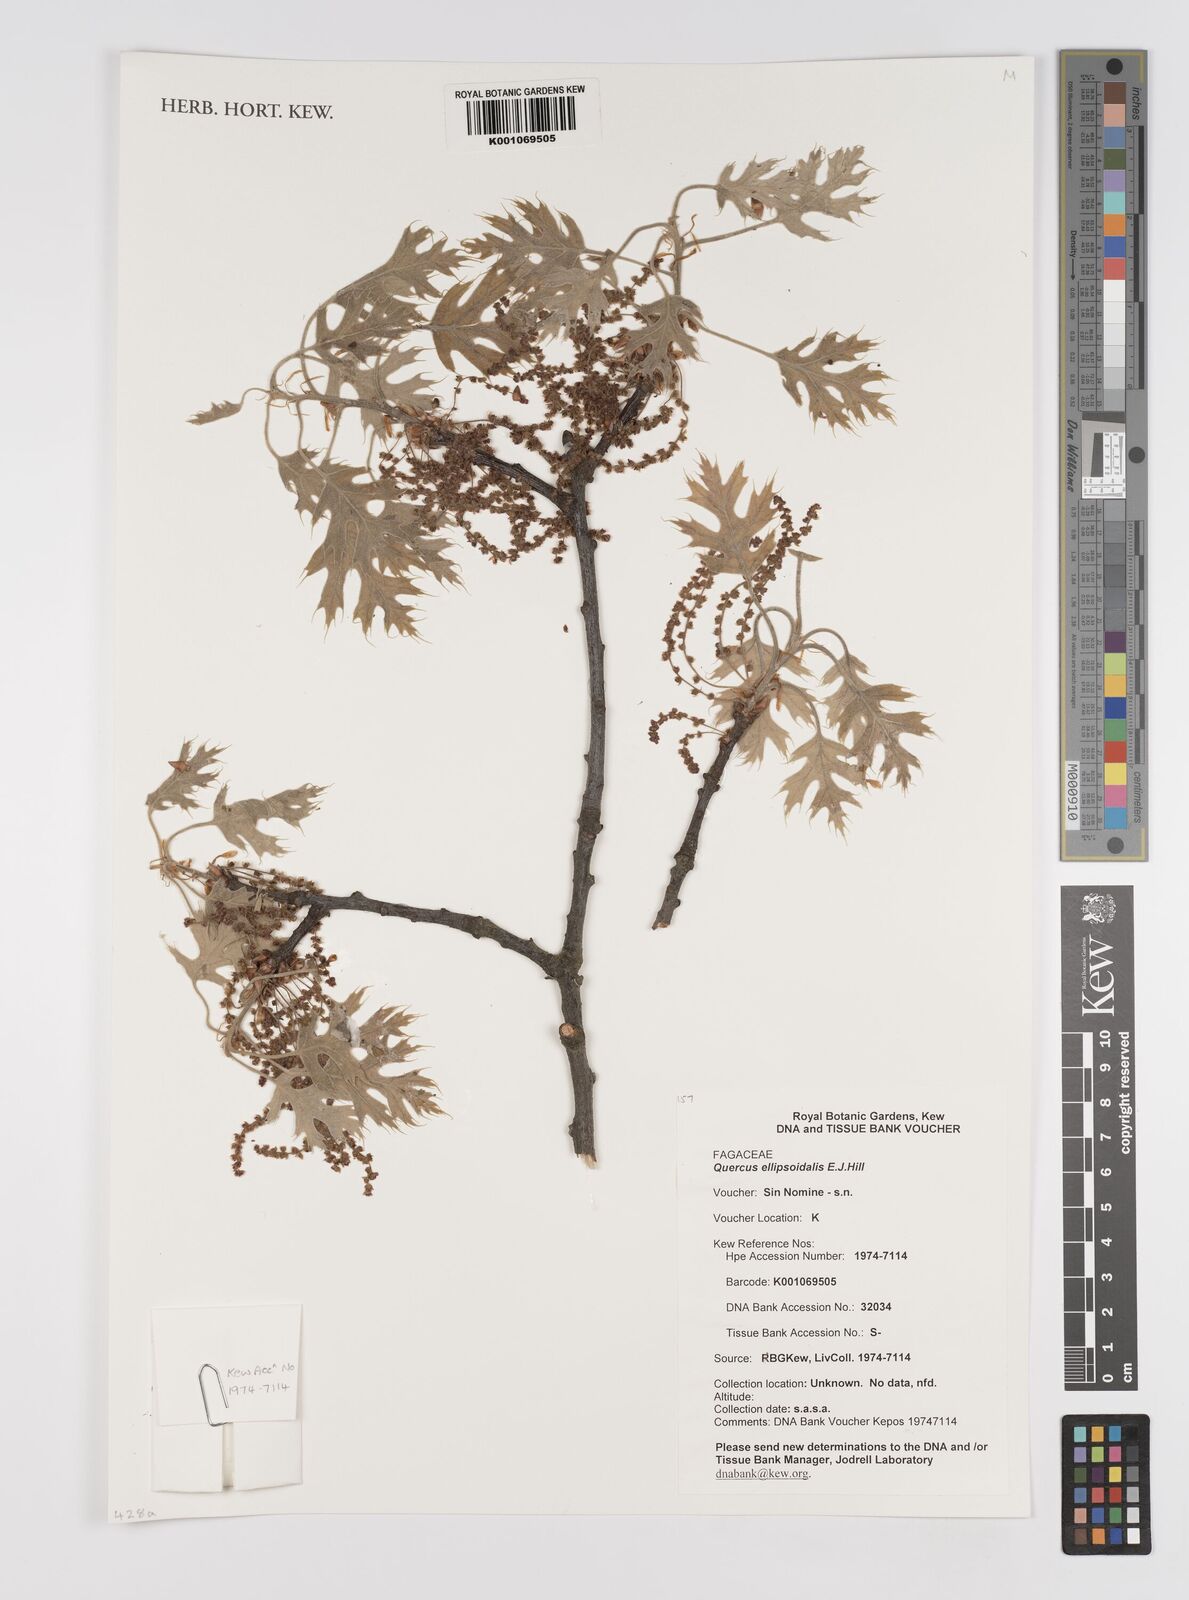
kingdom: Plantae
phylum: Tracheophyta
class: Magnoliopsida
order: Fagales
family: Fagaceae
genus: Quercus
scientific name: Quercus ellipsoidalis
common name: Hill's oak
